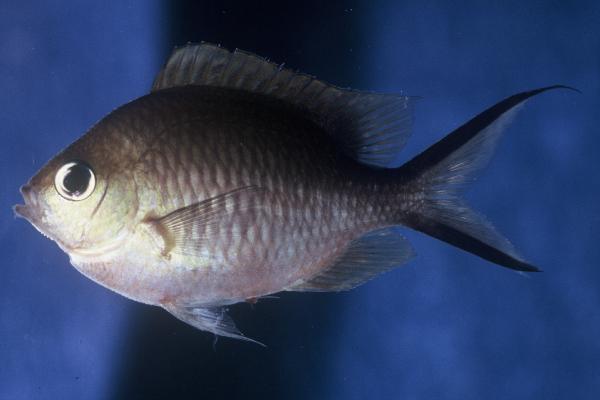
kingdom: Animalia
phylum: Chordata
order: Perciformes
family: Pomacentridae
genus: Chromis
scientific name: Chromis ternatensis
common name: Ternate chromis
